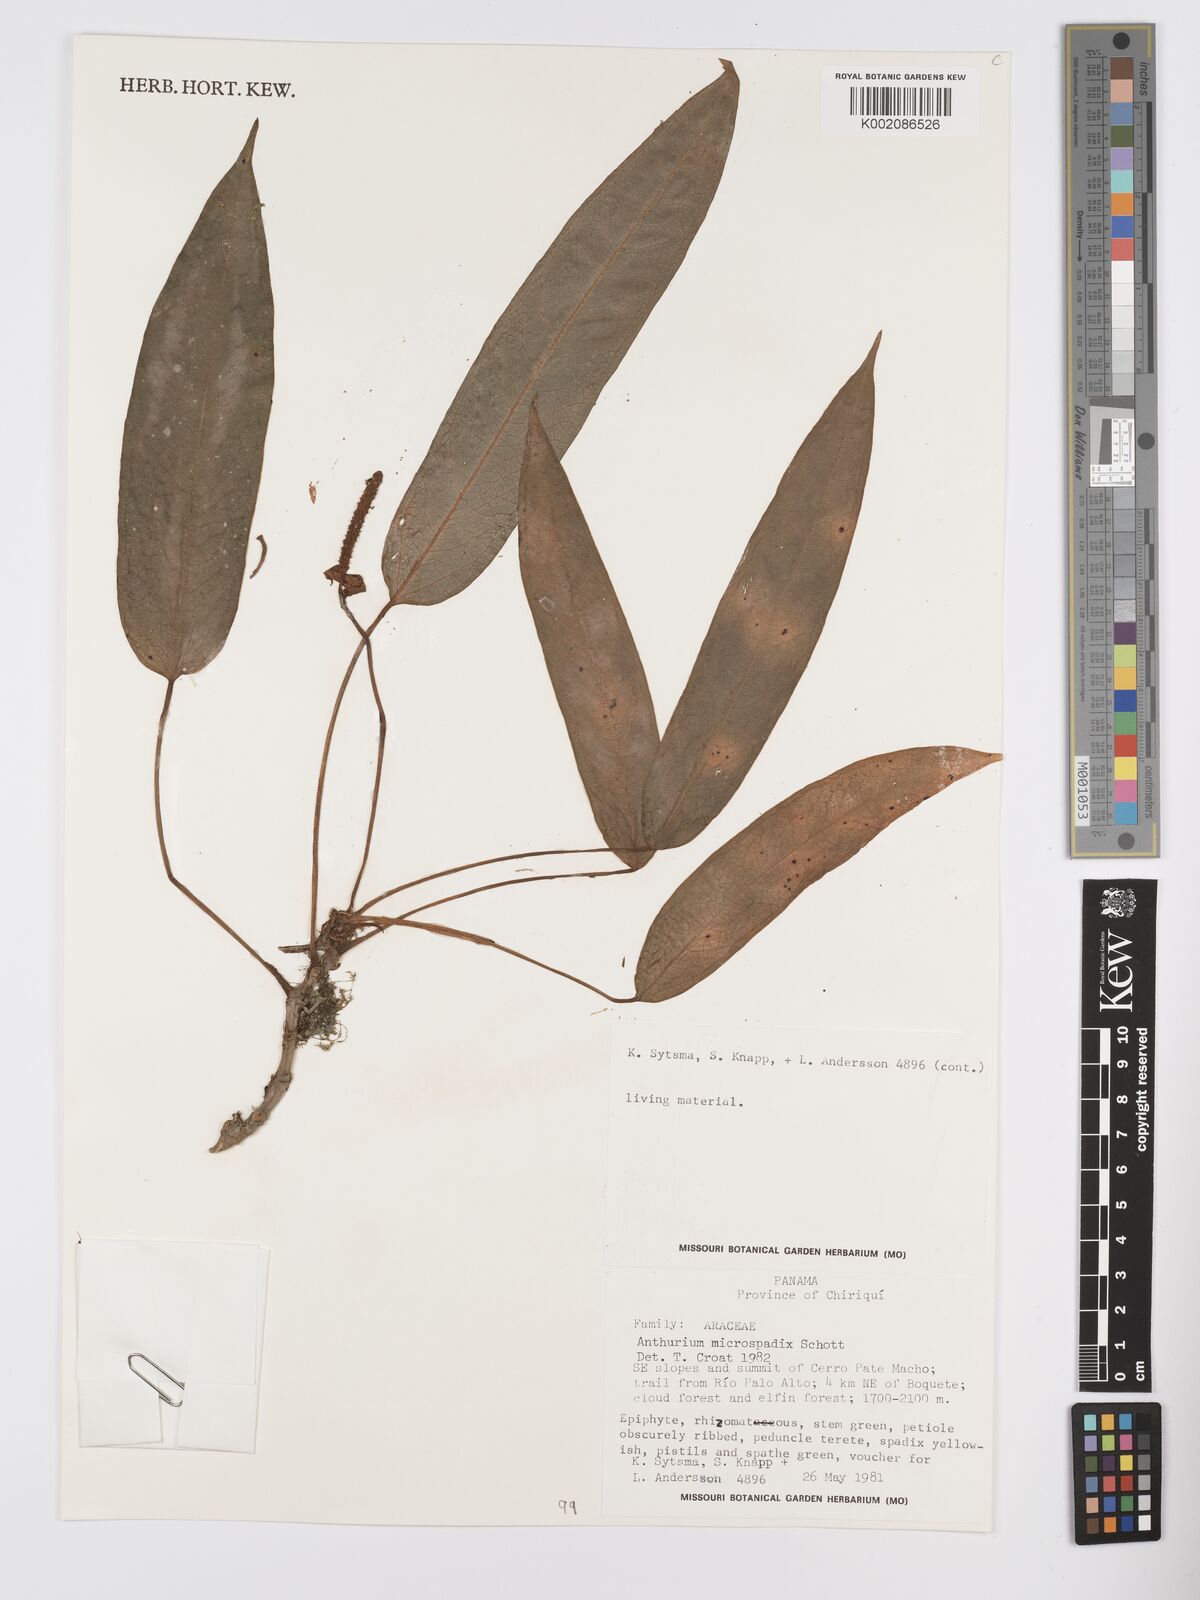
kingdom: Plantae
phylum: Tracheophyta
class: Liliopsida
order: Alismatales
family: Araceae
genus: Anthurium
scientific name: Anthurium microspadix
